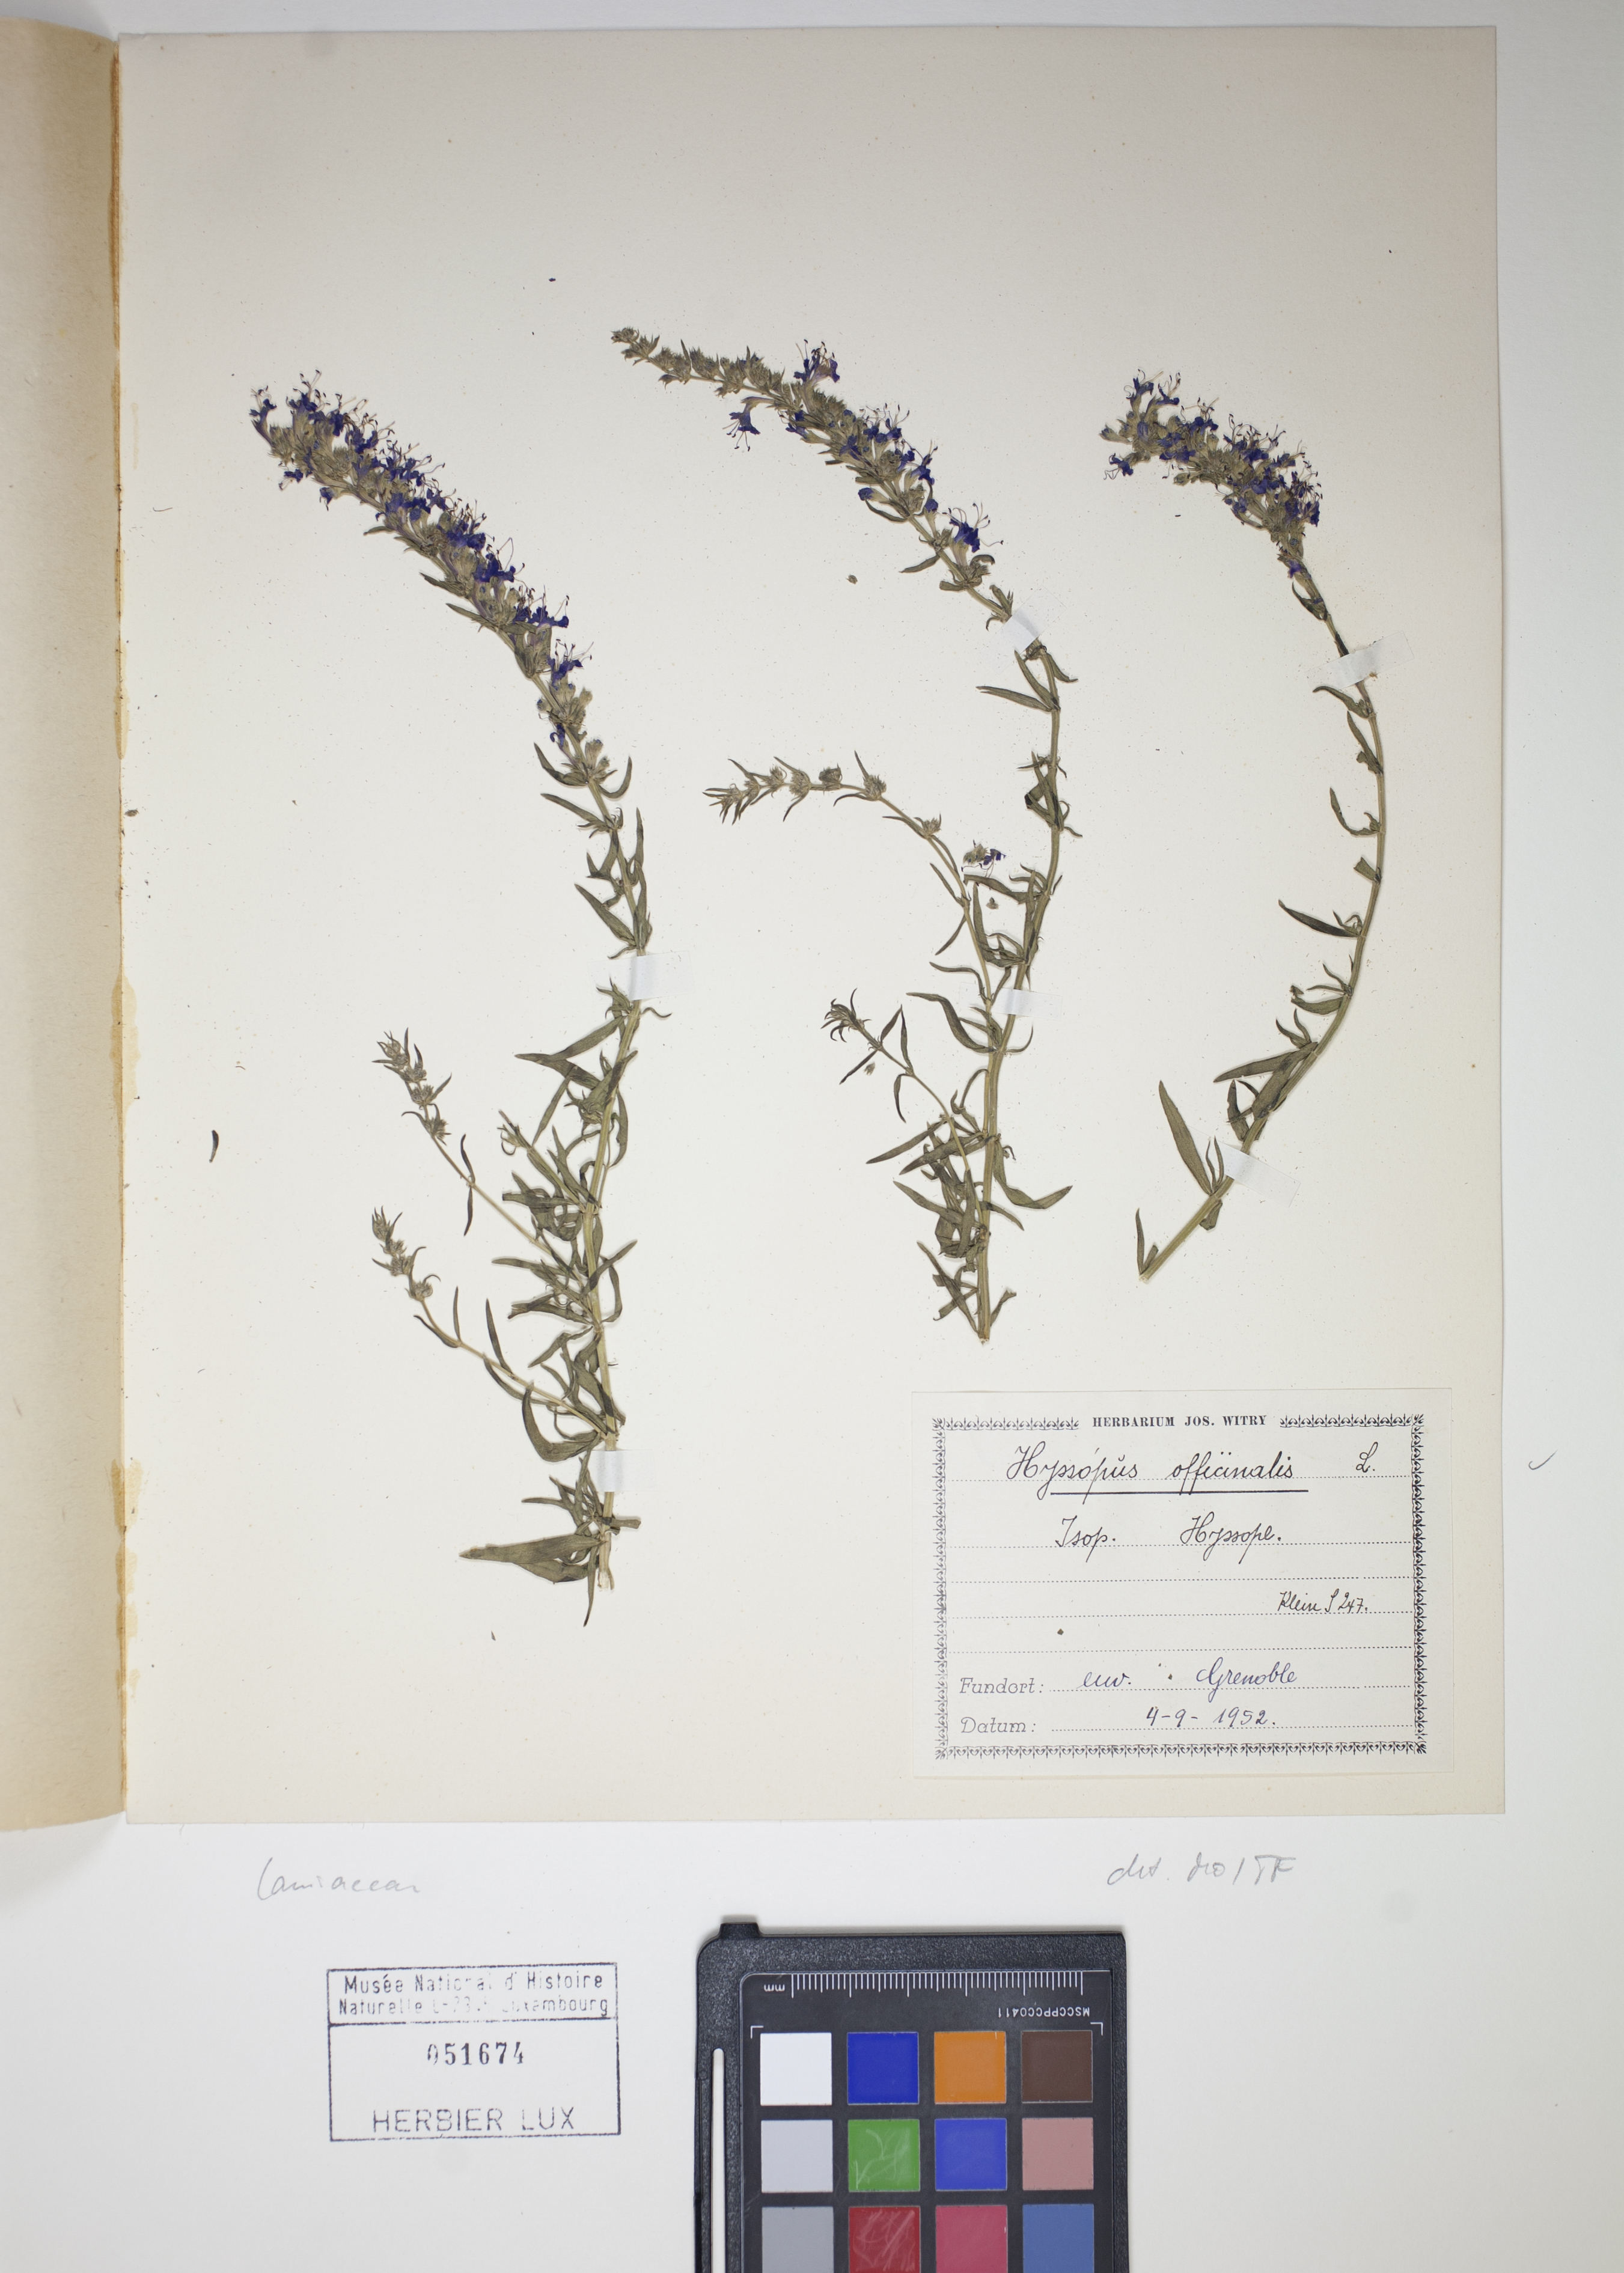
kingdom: Plantae
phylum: Tracheophyta
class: Magnoliopsida
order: Lamiales
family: Lamiaceae
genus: Hyssopus
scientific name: Hyssopus officinalis
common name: Hyssop
